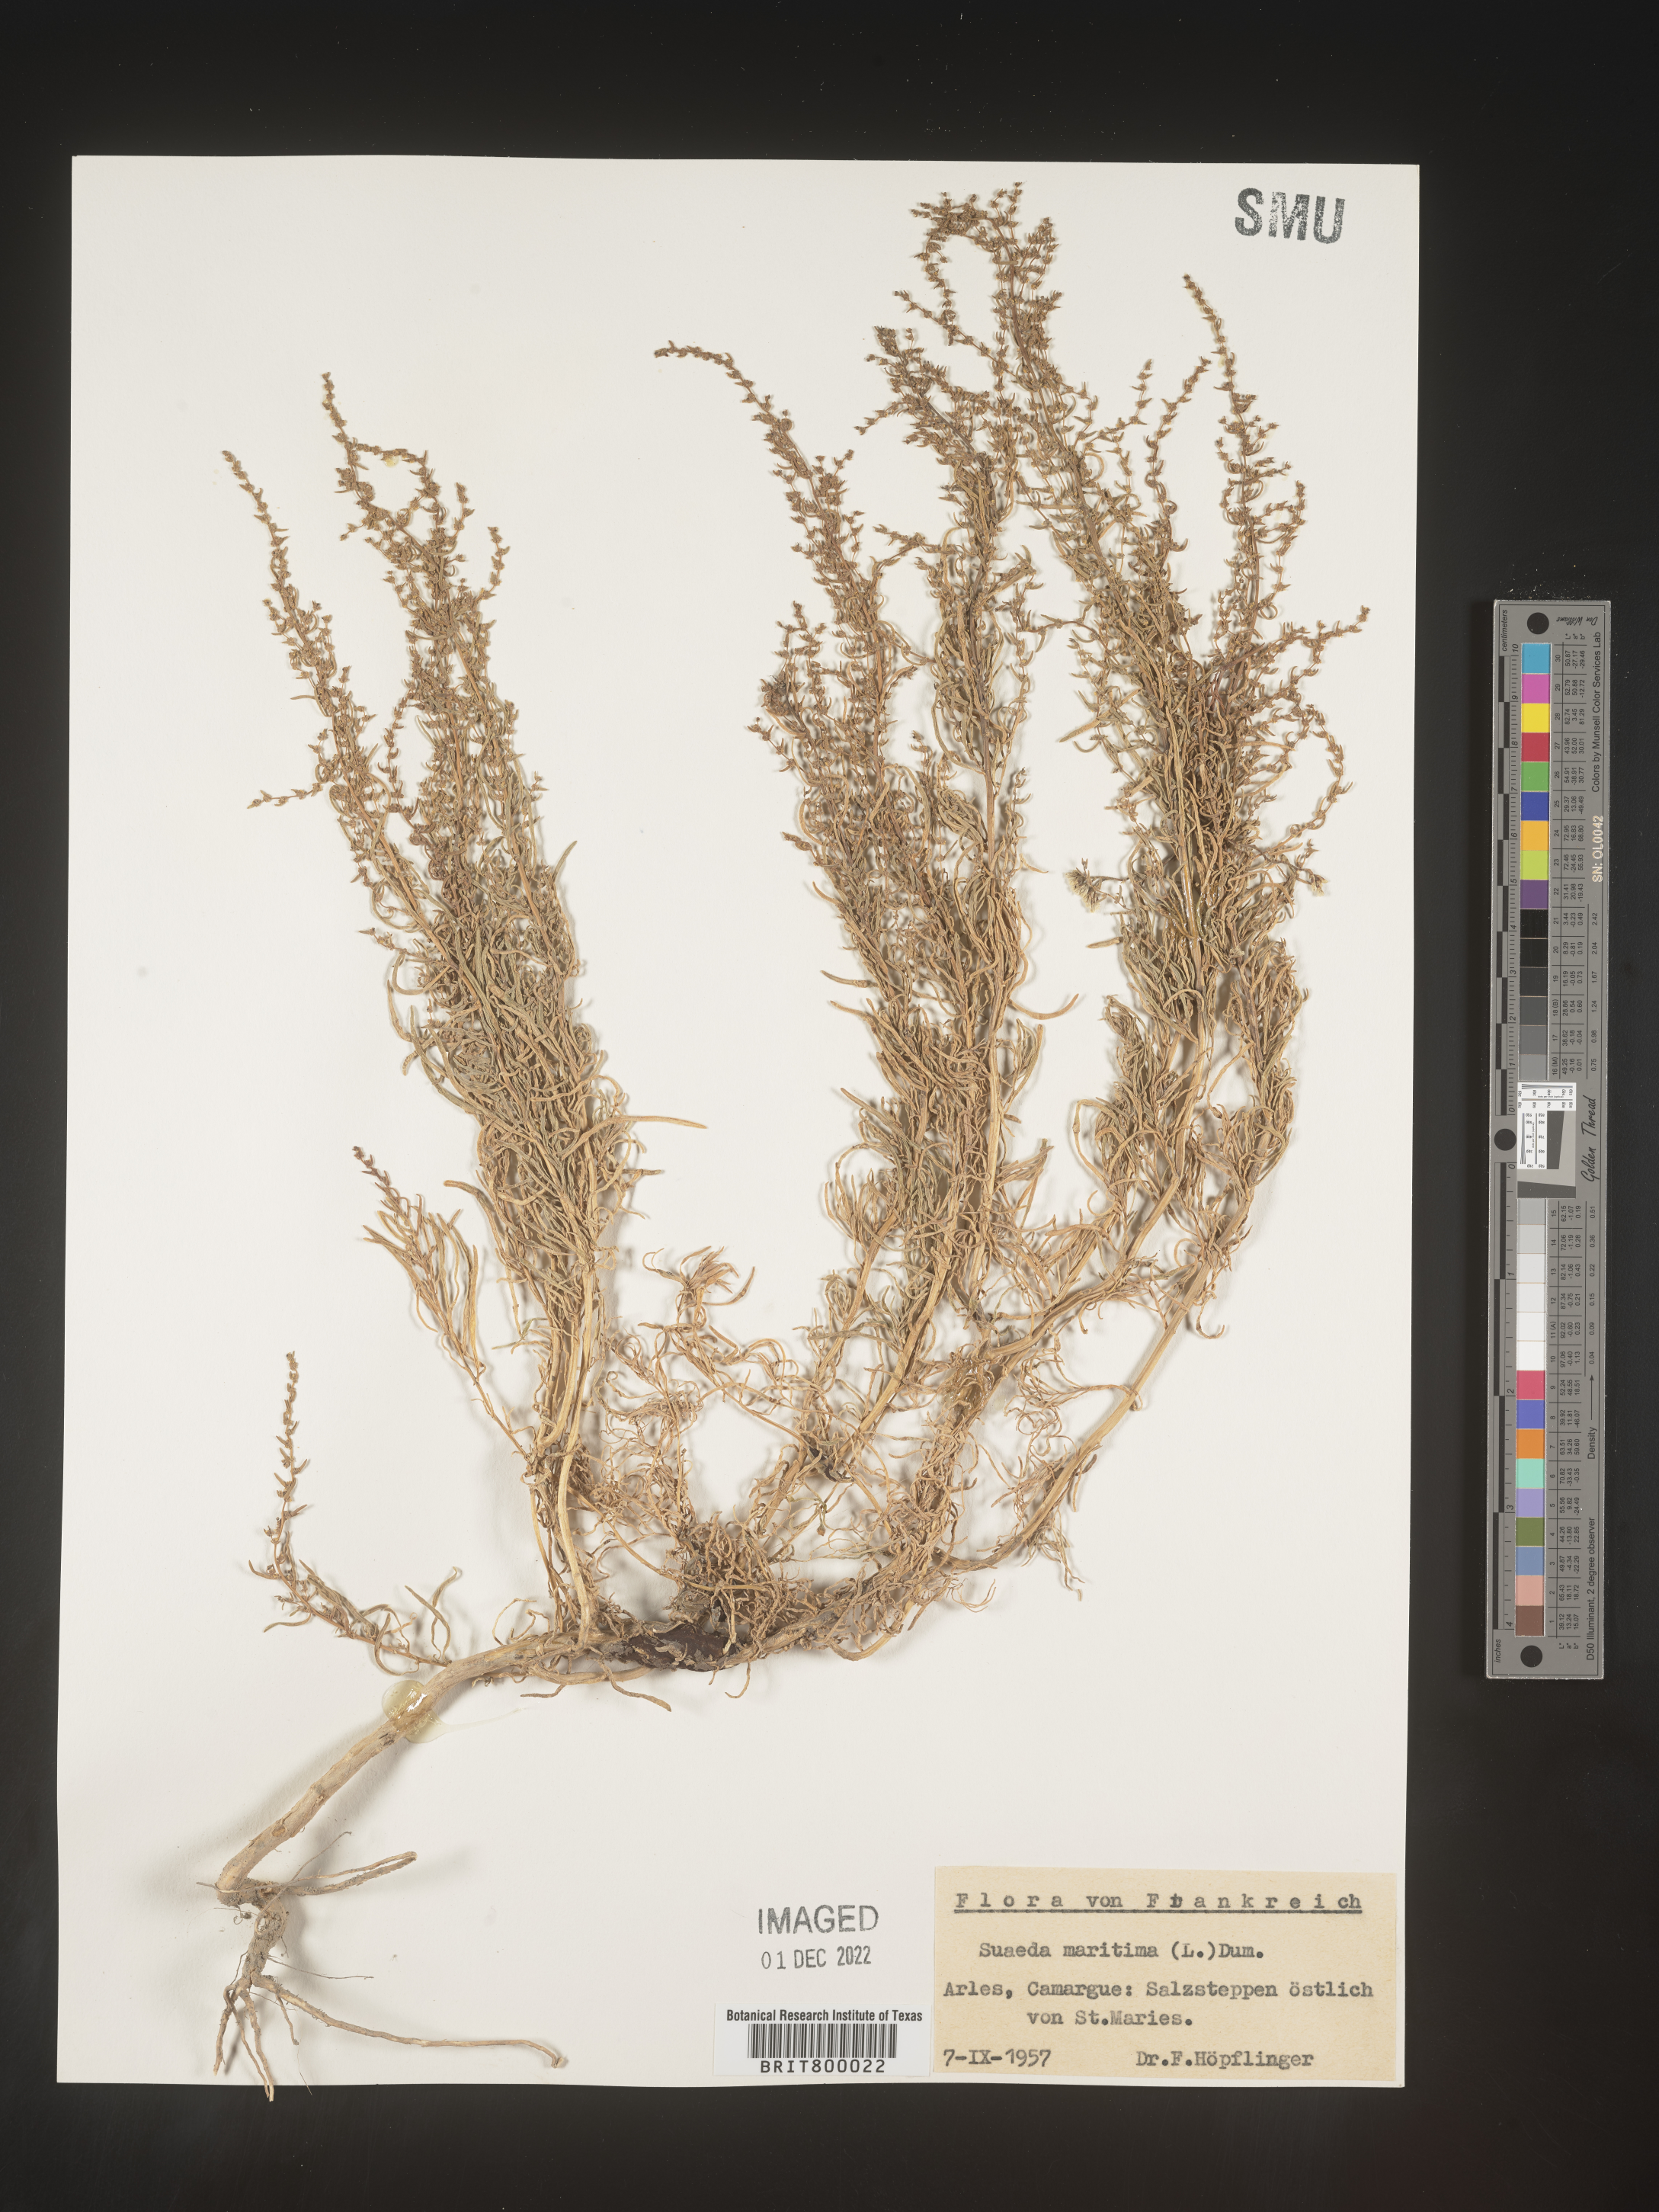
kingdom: Plantae
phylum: Tracheophyta
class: Magnoliopsida
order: Caryophyllales
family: Amaranthaceae
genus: Suaeda
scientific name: Suaeda
